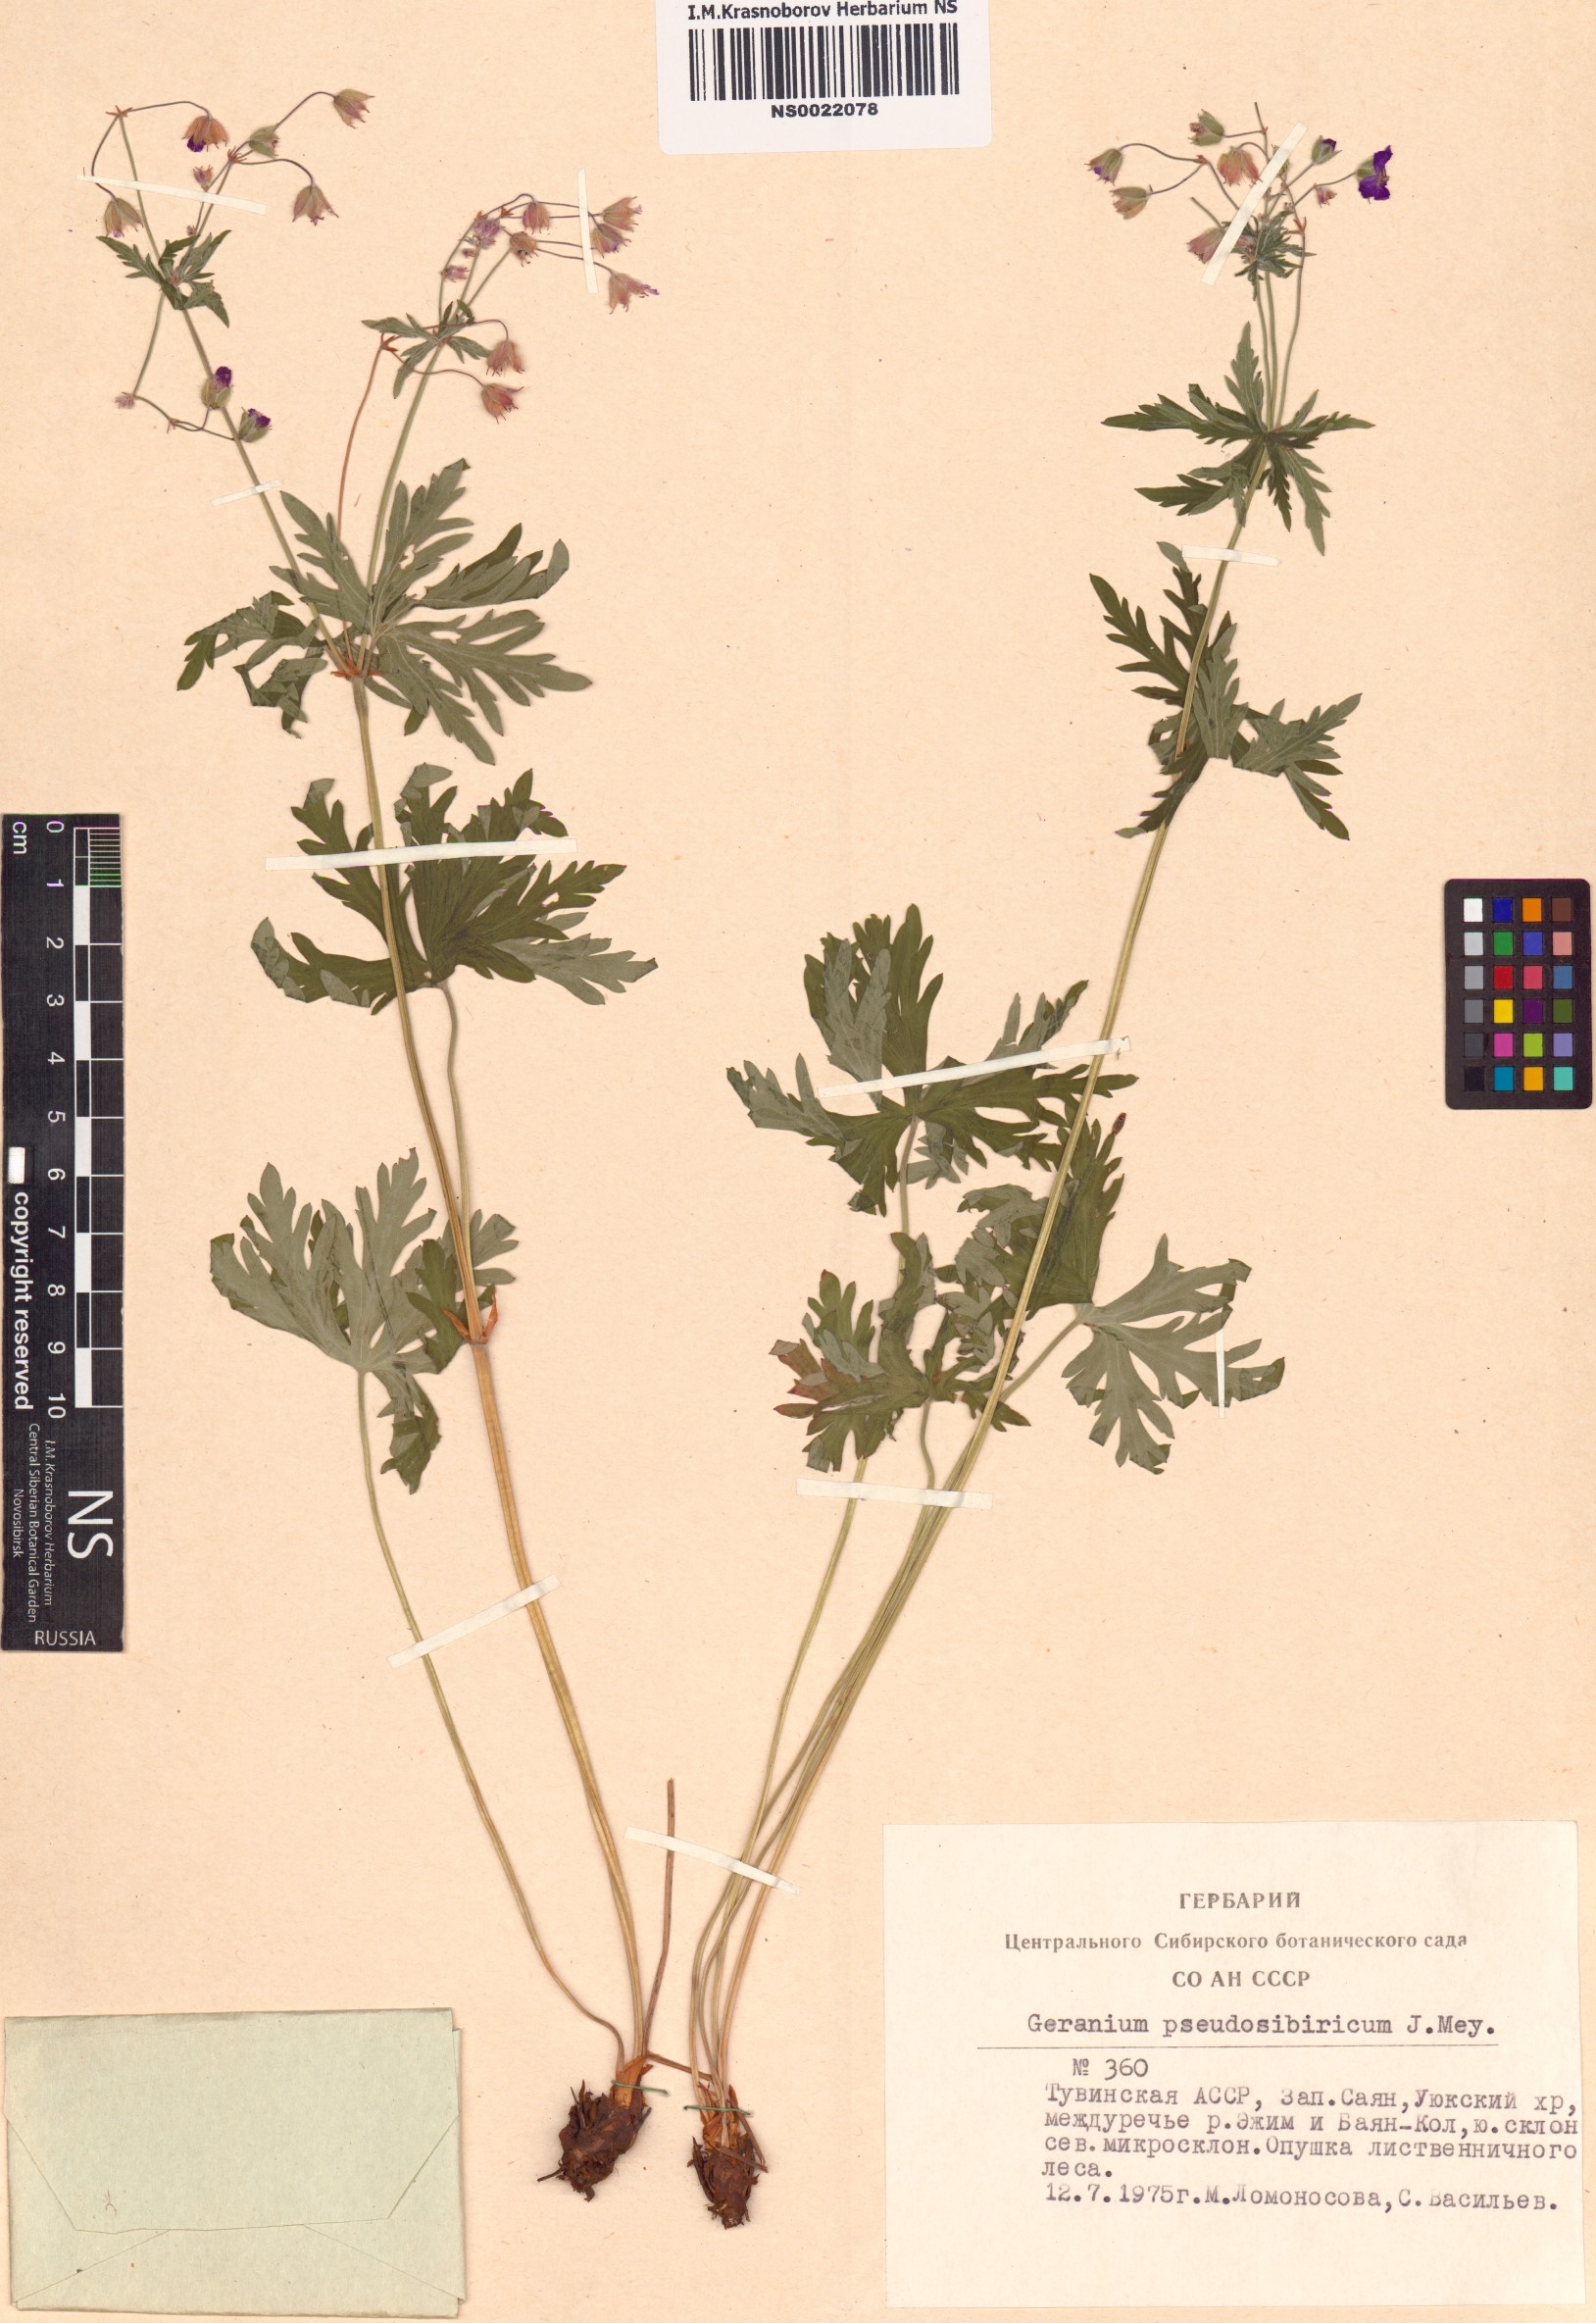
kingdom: Plantae
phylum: Tracheophyta
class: Magnoliopsida
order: Geraniales
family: Geraniaceae
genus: Geranium
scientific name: Geranium pseudosibiricum
